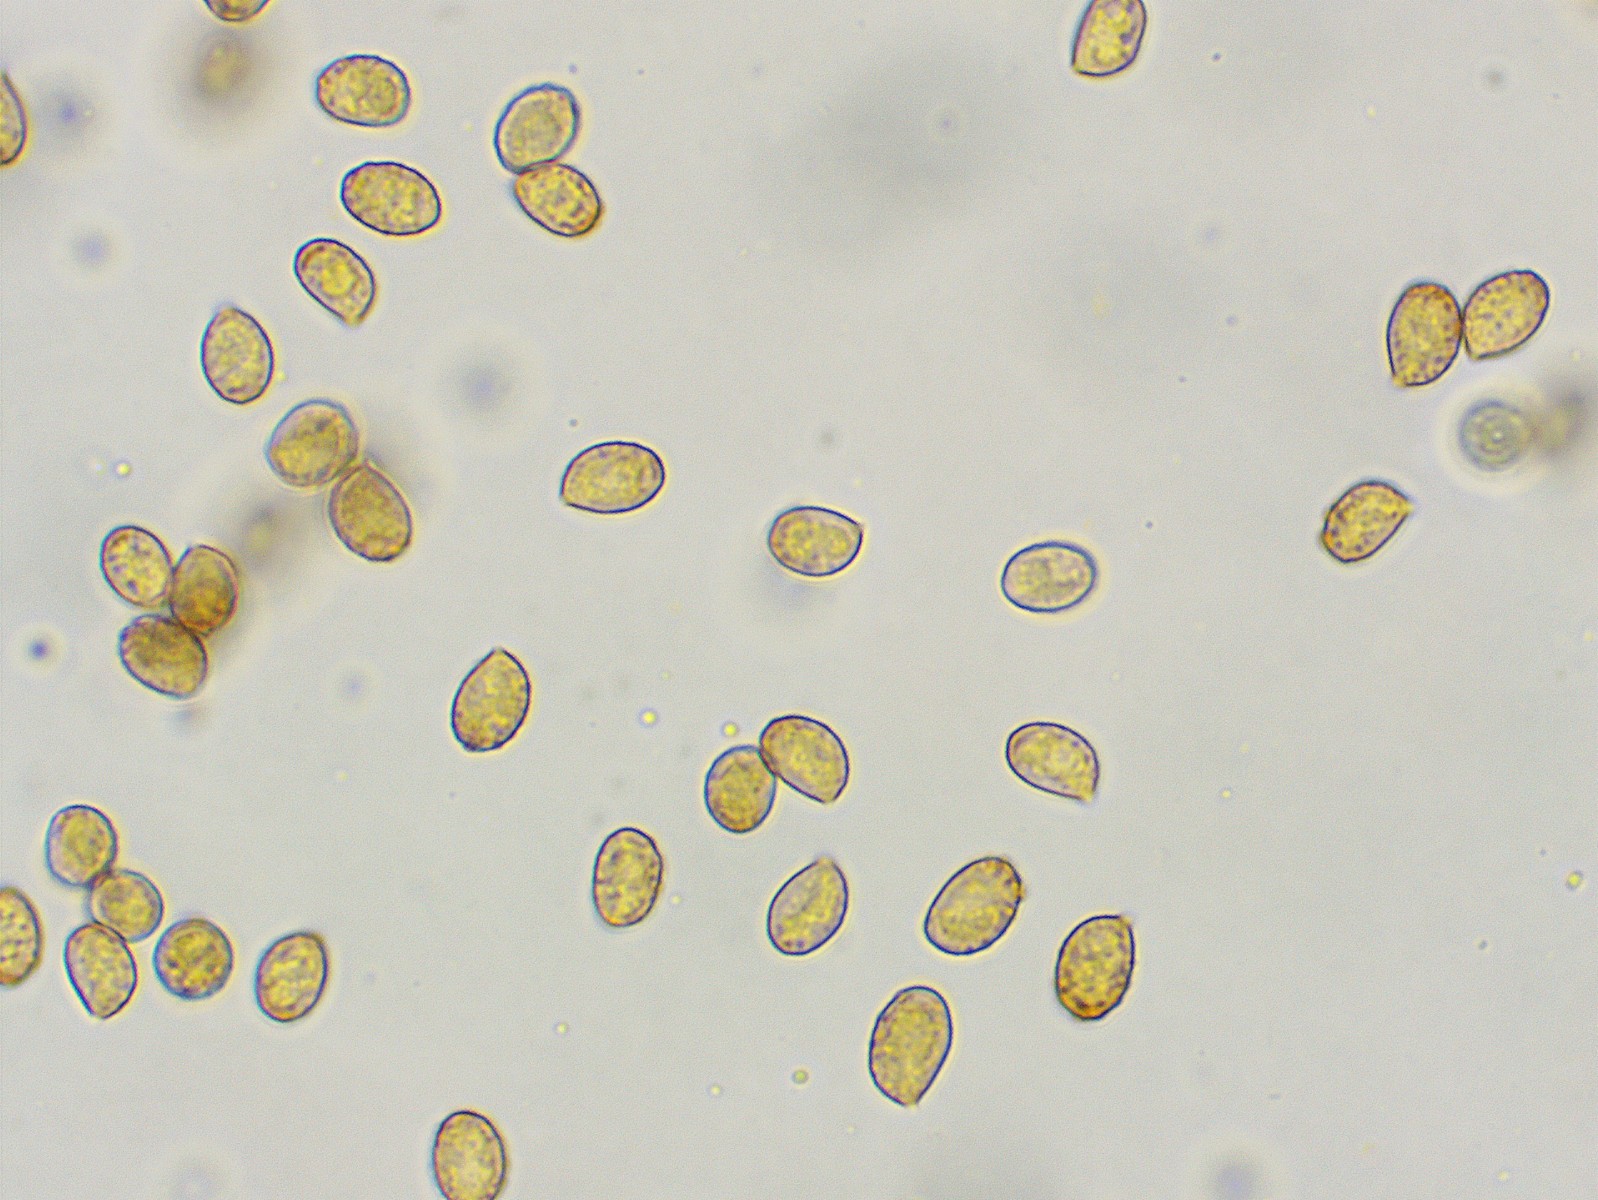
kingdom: Fungi
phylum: Basidiomycota
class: Agaricomycetes
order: Agaricales
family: Cortinariaceae
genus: Cortinarius
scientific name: Cortinarius comptulus
